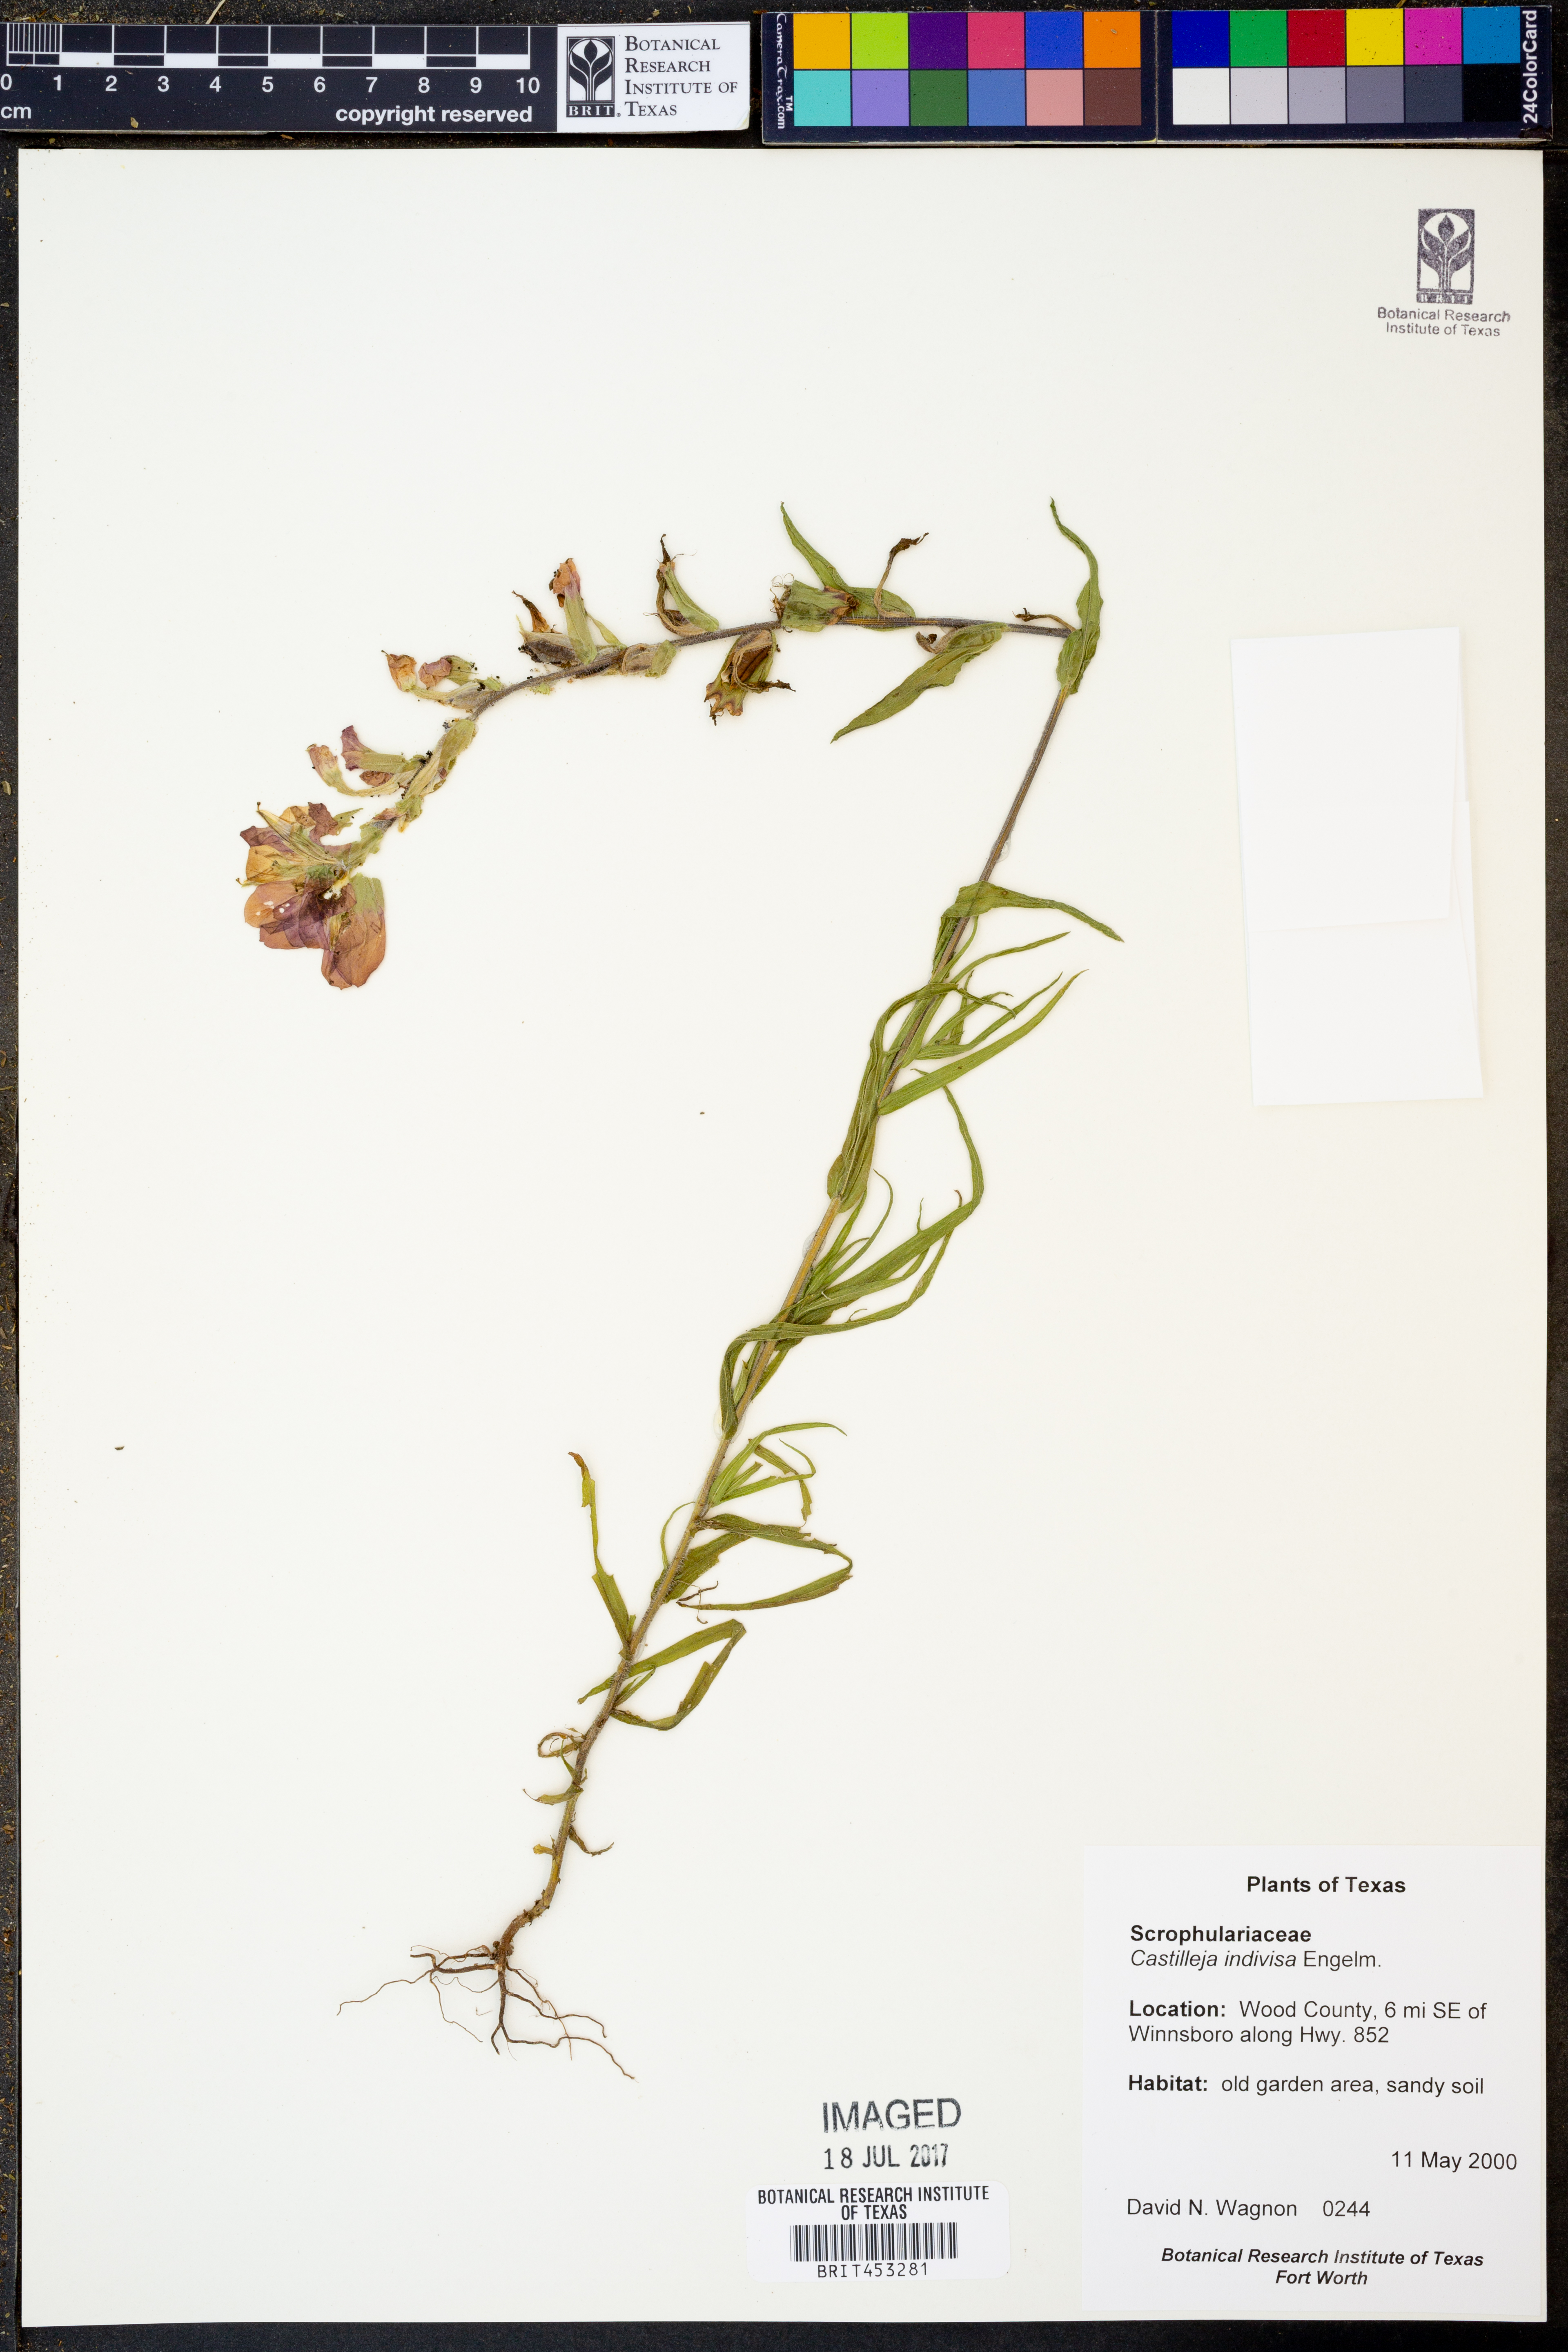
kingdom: Plantae
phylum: Tracheophyta
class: Magnoliopsida
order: Lamiales
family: Orobanchaceae
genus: Castilleja
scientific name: Castilleja indivisa
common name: Texas paintbrush
